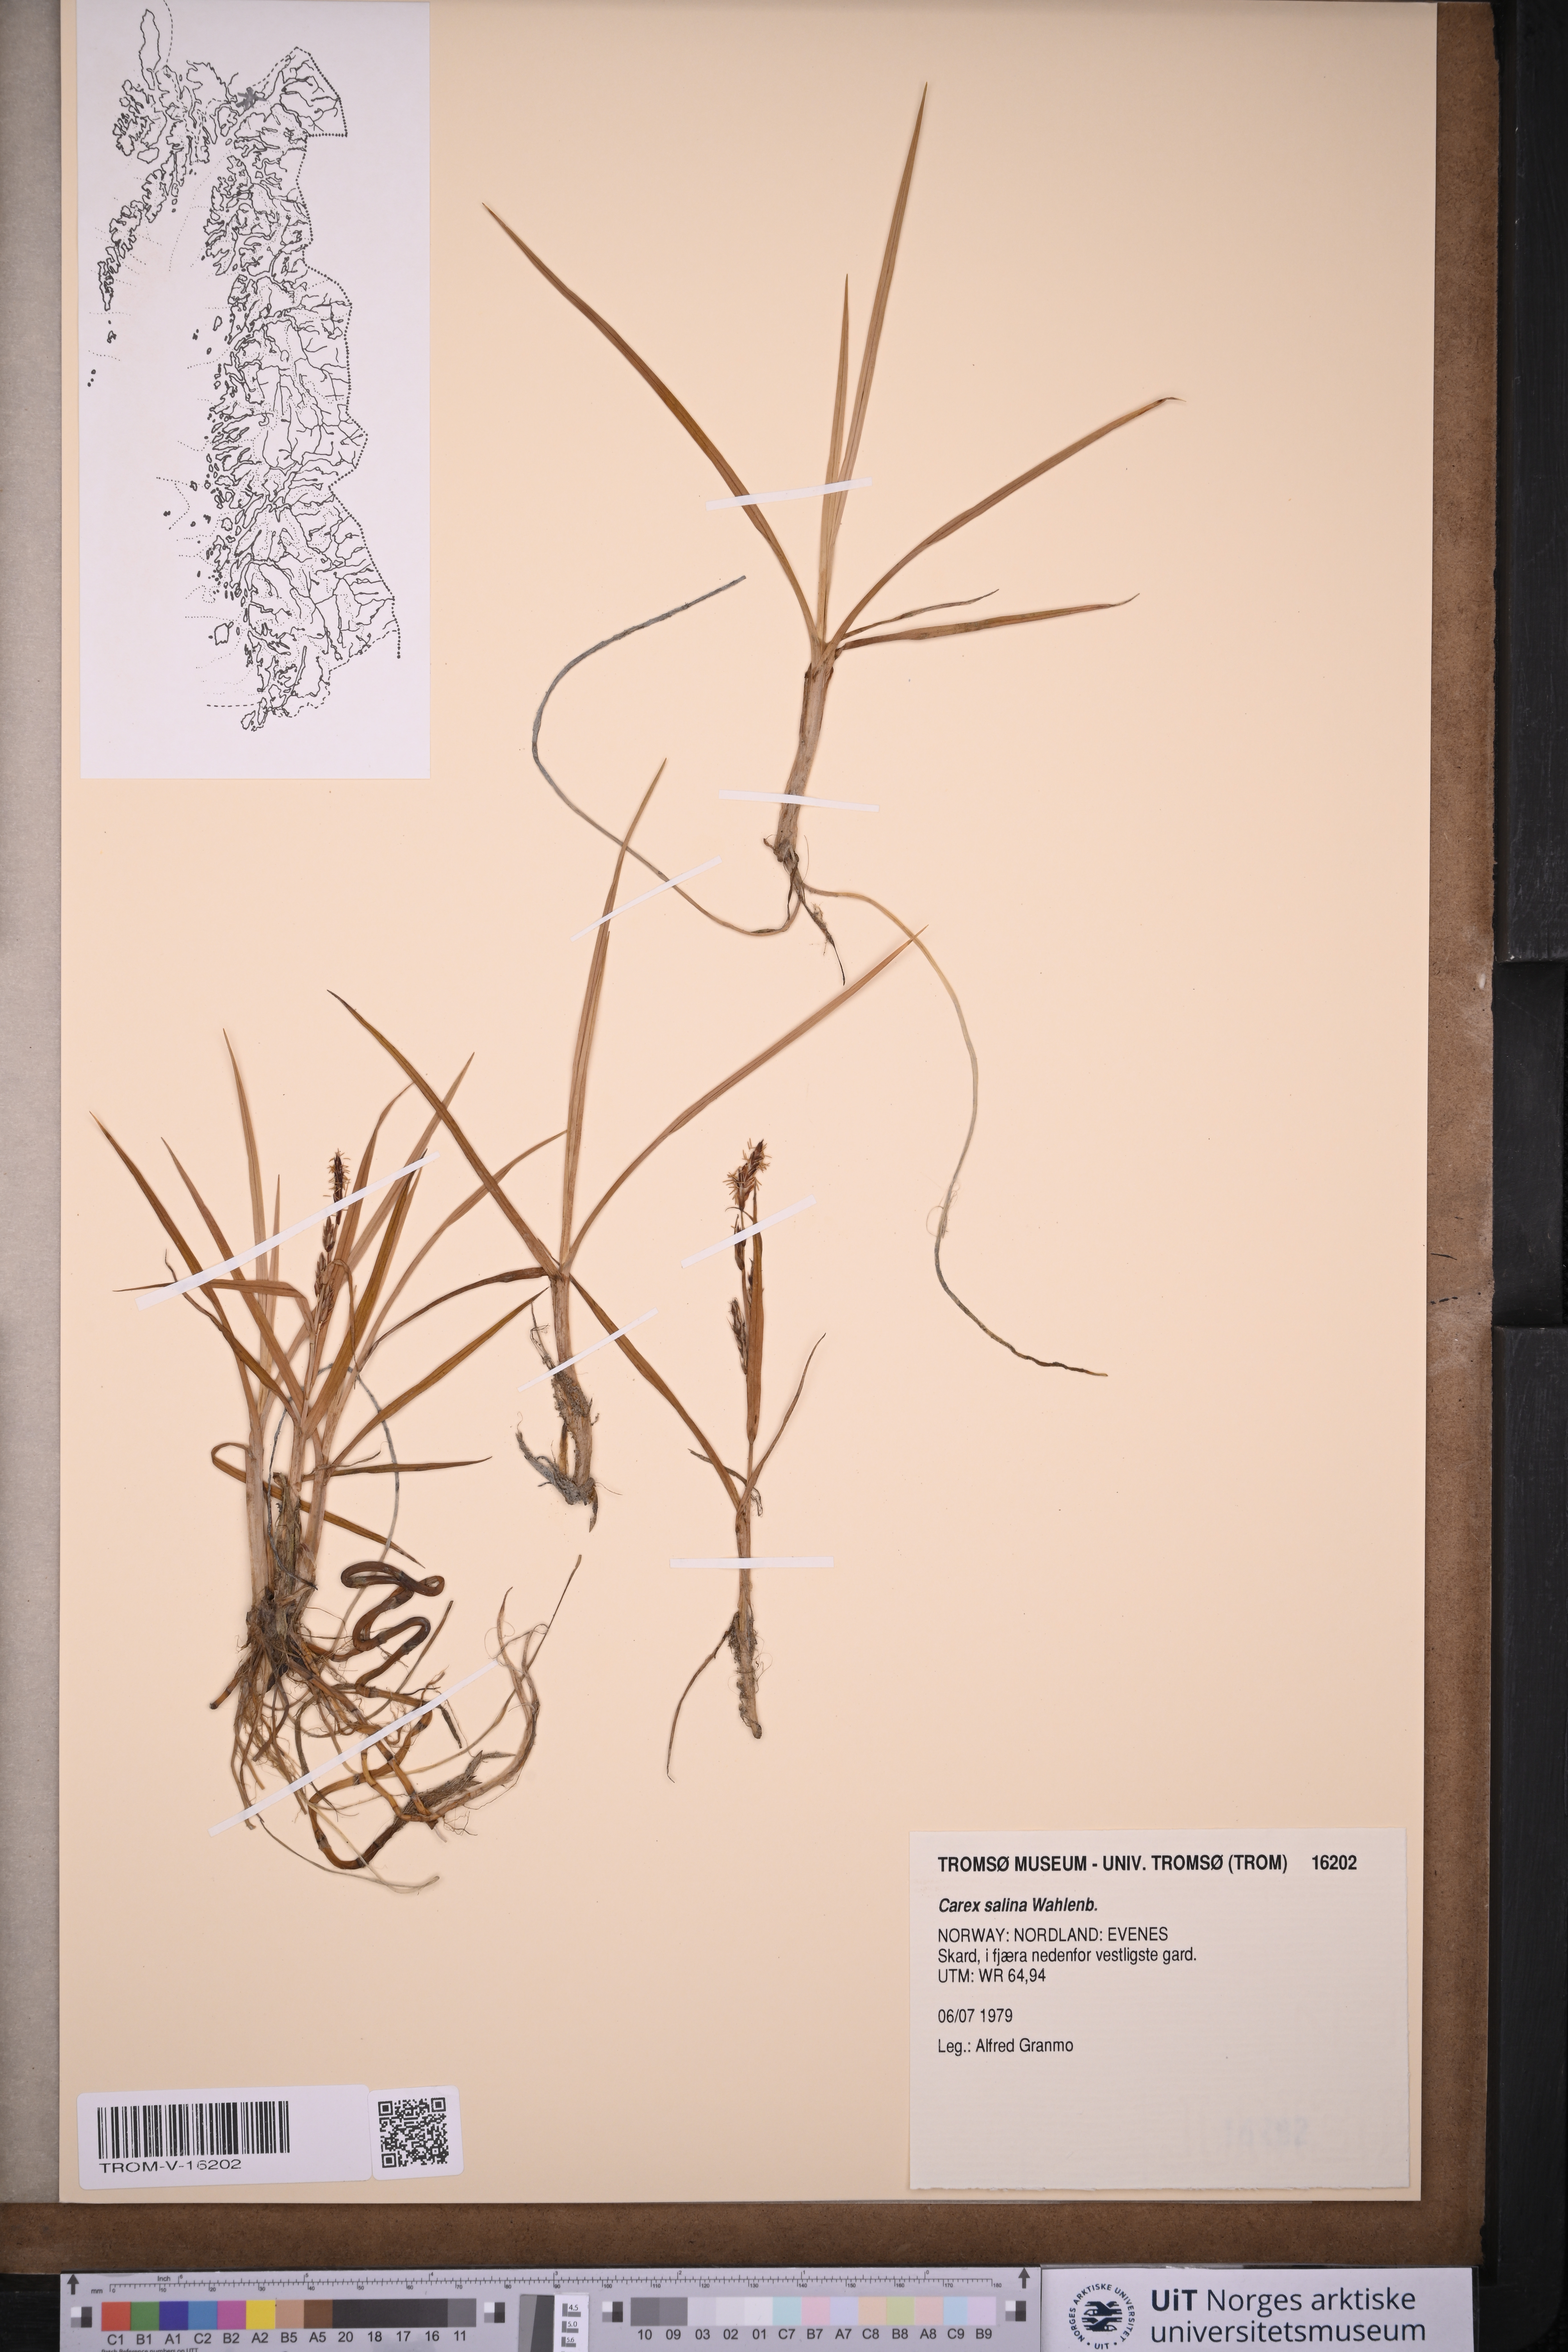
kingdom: Plantae
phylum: Tracheophyta
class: Liliopsida
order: Poales
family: Cyperaceae
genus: Carex
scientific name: Carex salina
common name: Saltmarsh sedge
